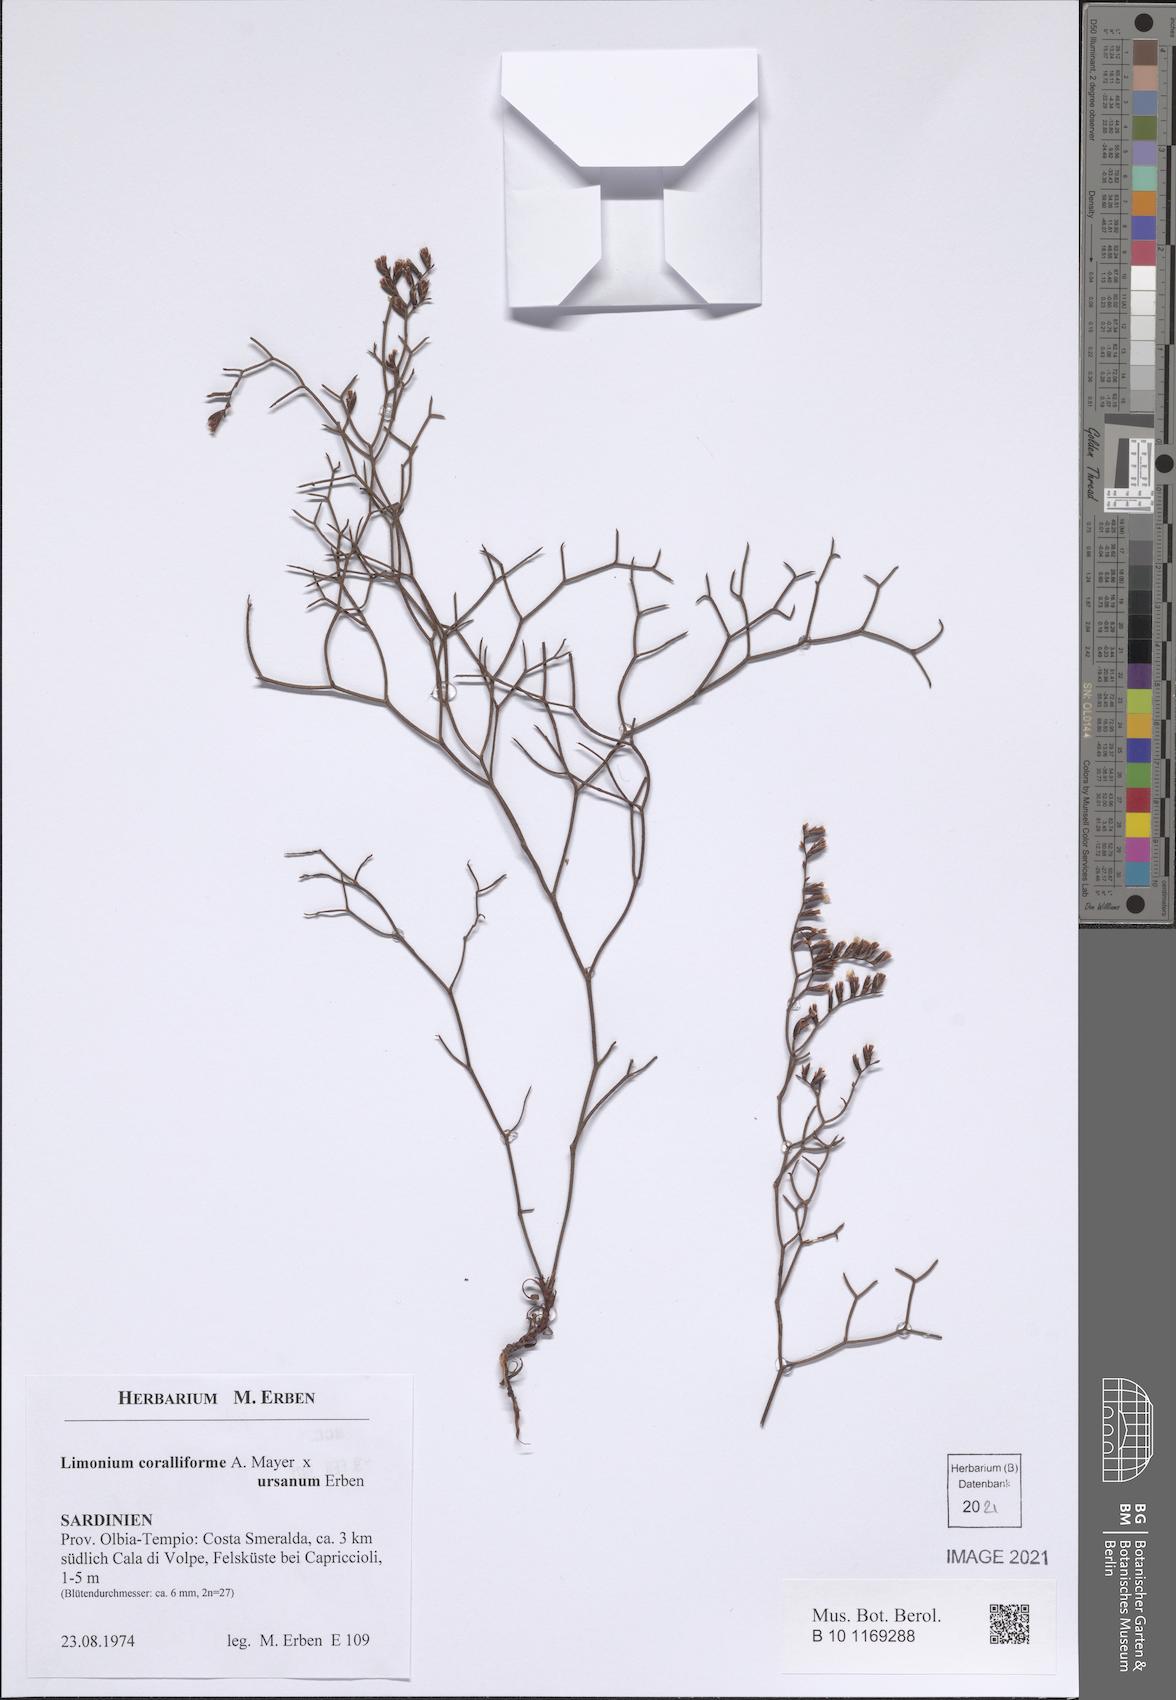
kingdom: Plantae
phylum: Tracheophyta
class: Magnoliopsida
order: Caryophyllales
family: Plumbaginaceae
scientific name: Plumbaginaceae
